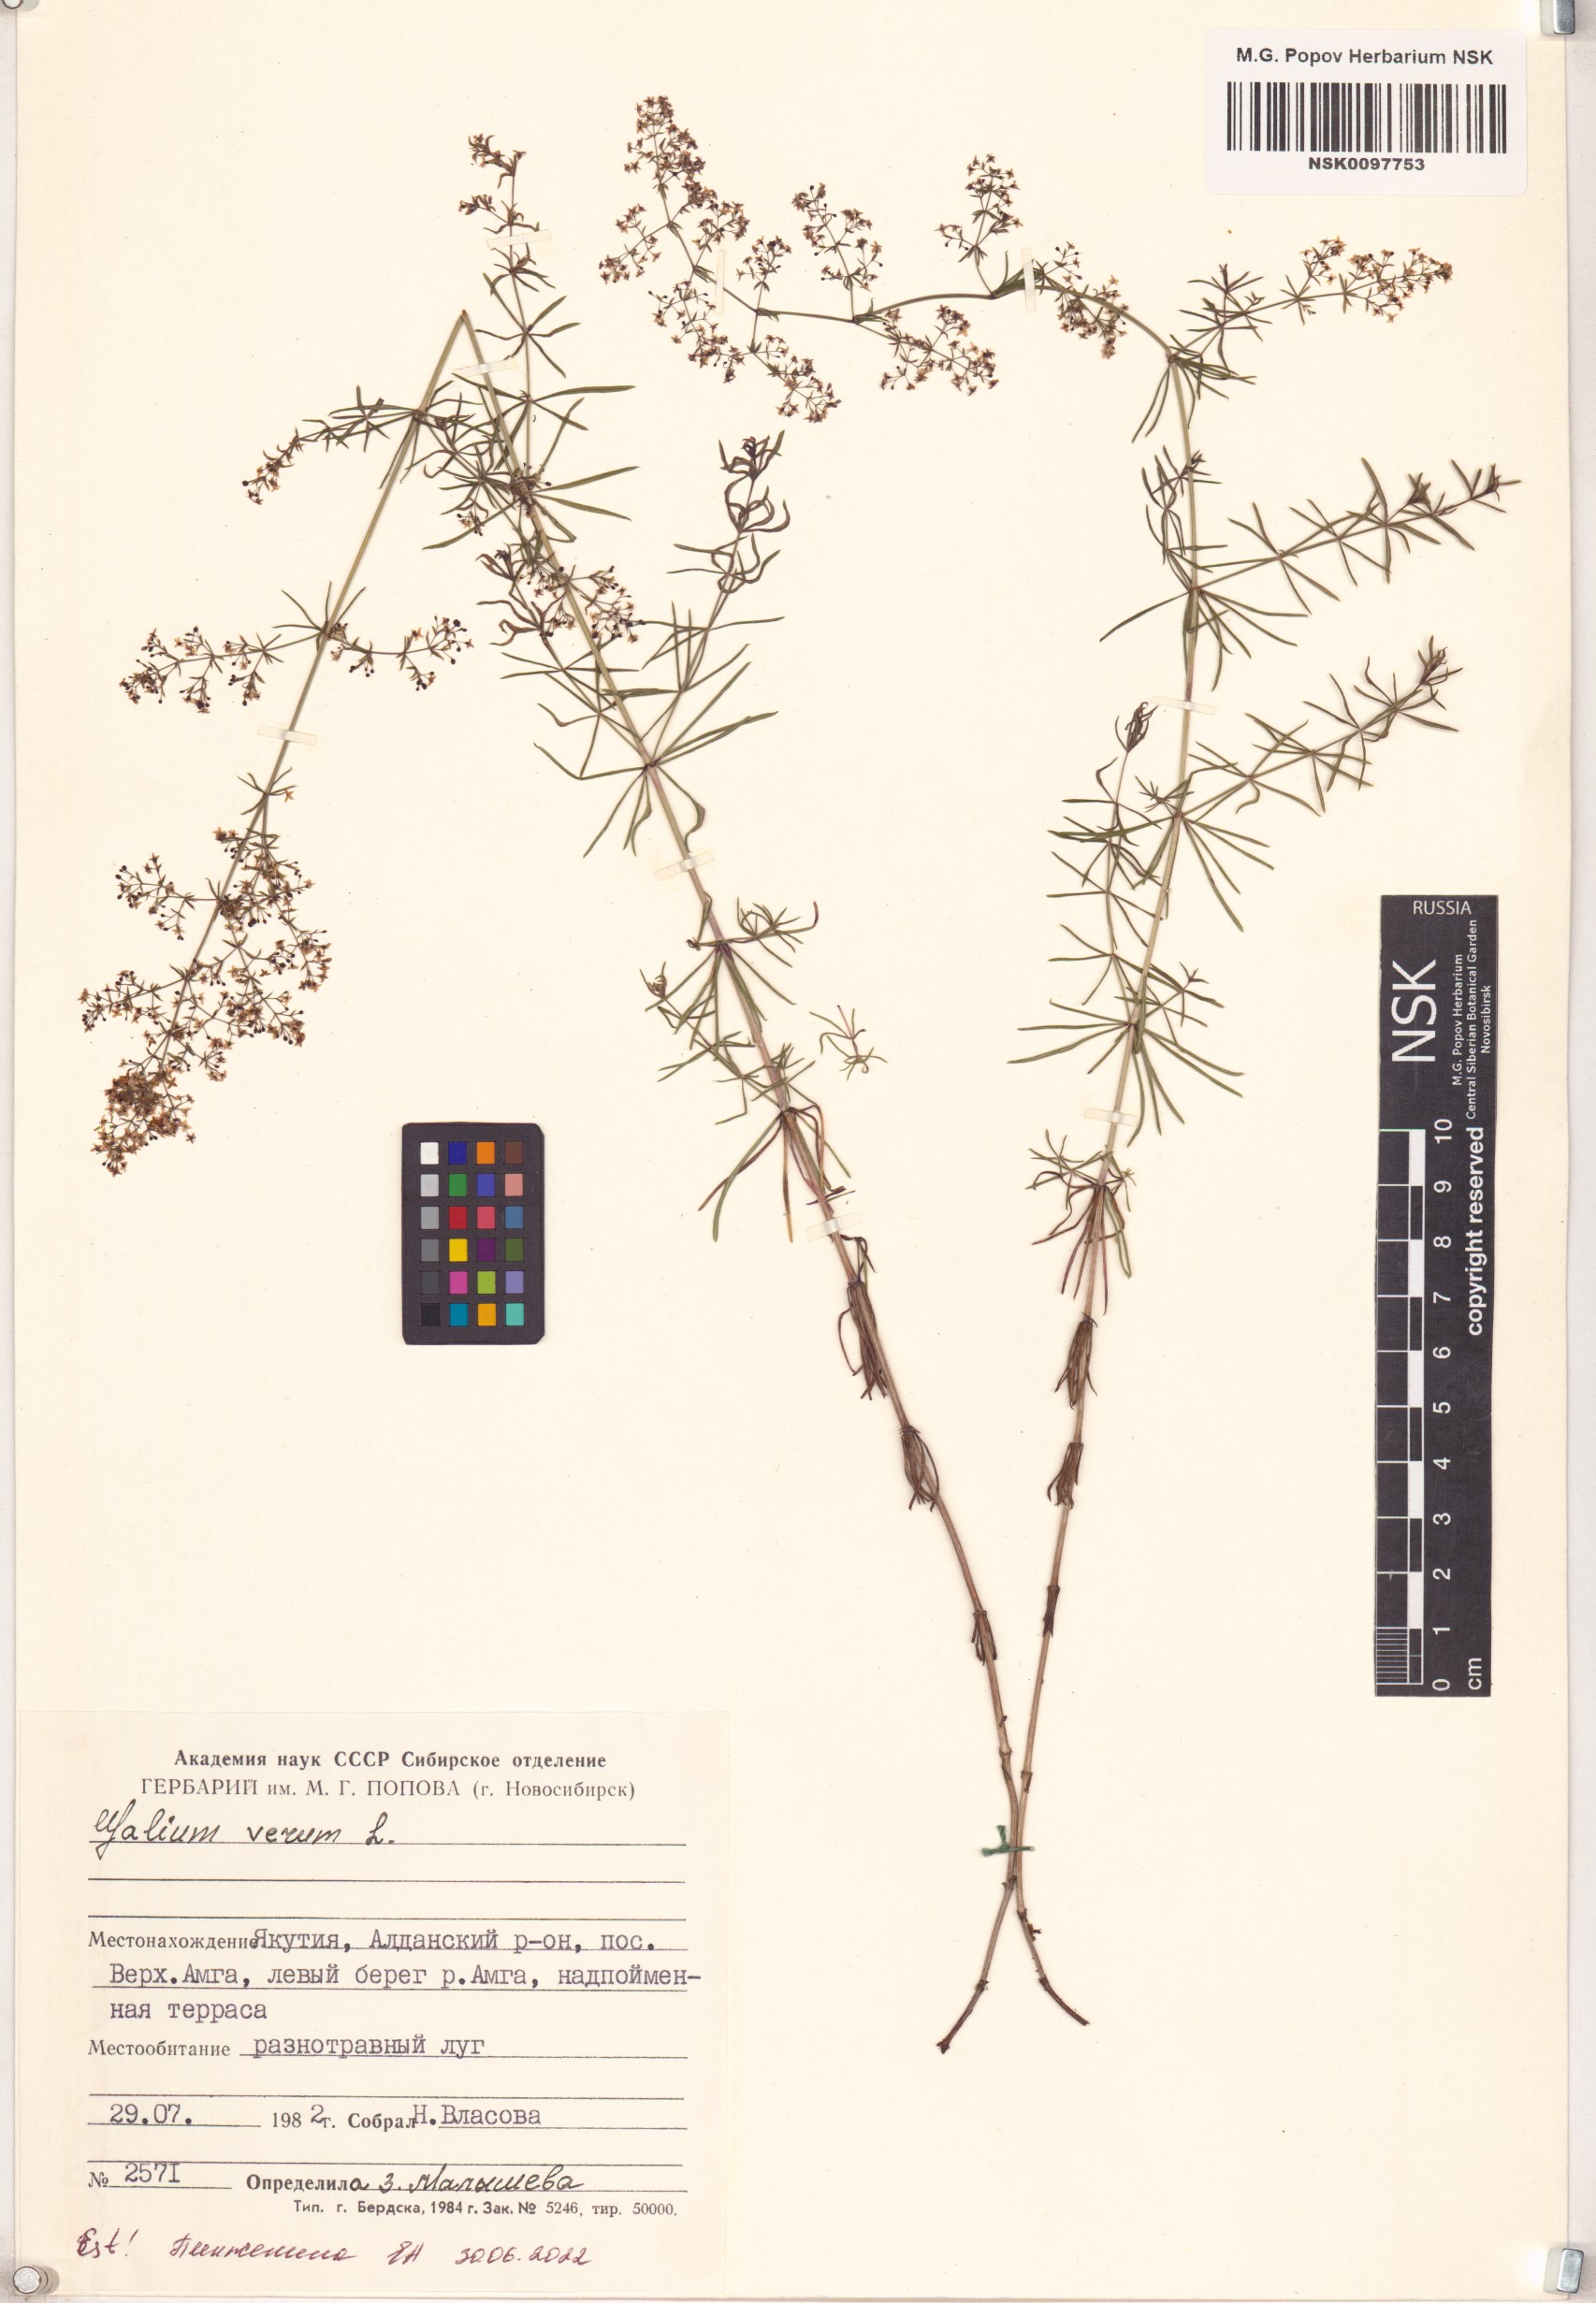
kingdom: Plantae
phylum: Tracheophyta
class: Magnoliopsida
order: Gentianales
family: Rubiaceae
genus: Galium
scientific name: Galium verum
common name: Lady's bedstraw
